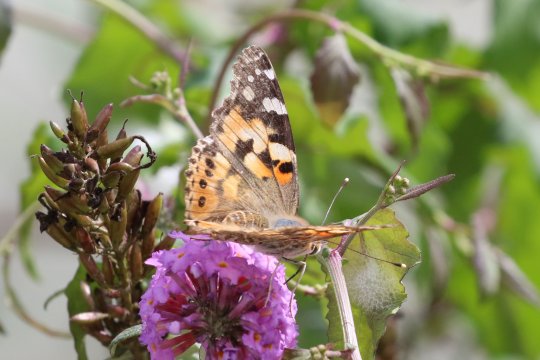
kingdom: Animalia
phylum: Arthropoda
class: Insecta
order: Lepidoptera
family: Nymphalidae
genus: Vanessa
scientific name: Vanessa cardui
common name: Painted Lady
